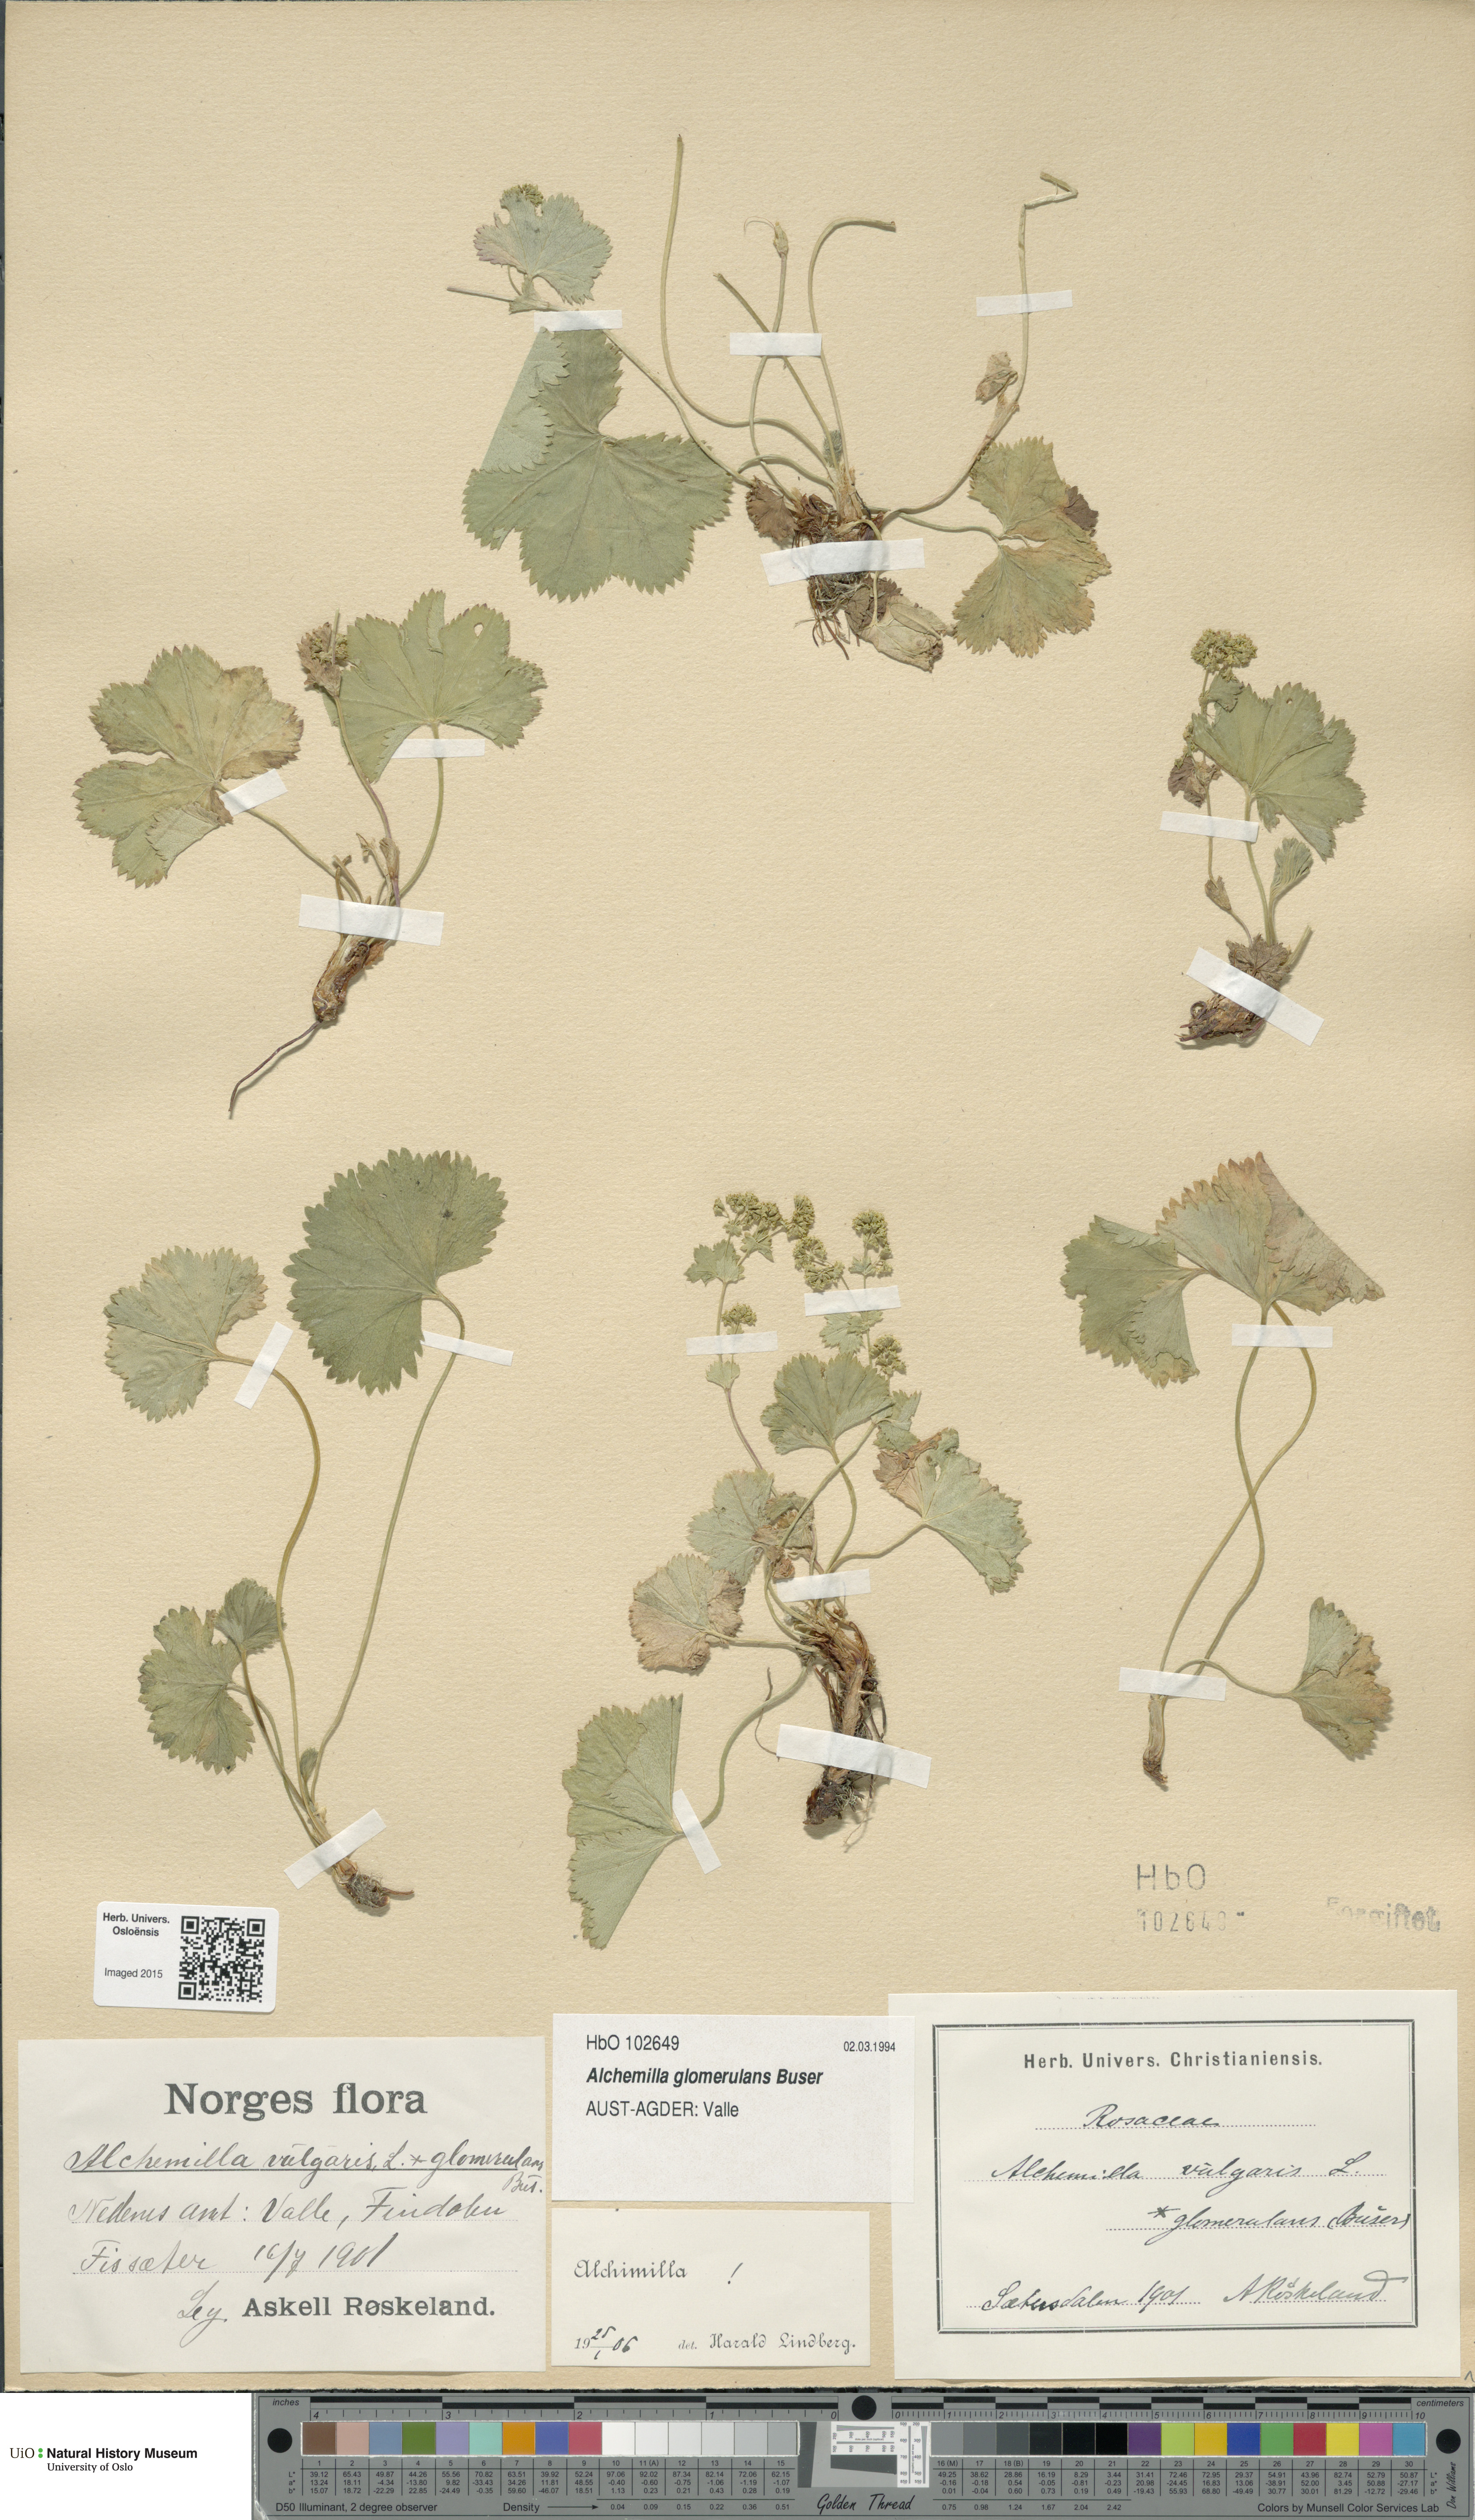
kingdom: Plantae
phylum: Tracheophyta
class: Magnoliopsida
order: Rosales
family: Rosaceae
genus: Alchemilla
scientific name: Alchemilla glomerulans
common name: Clustered lady's mantle
